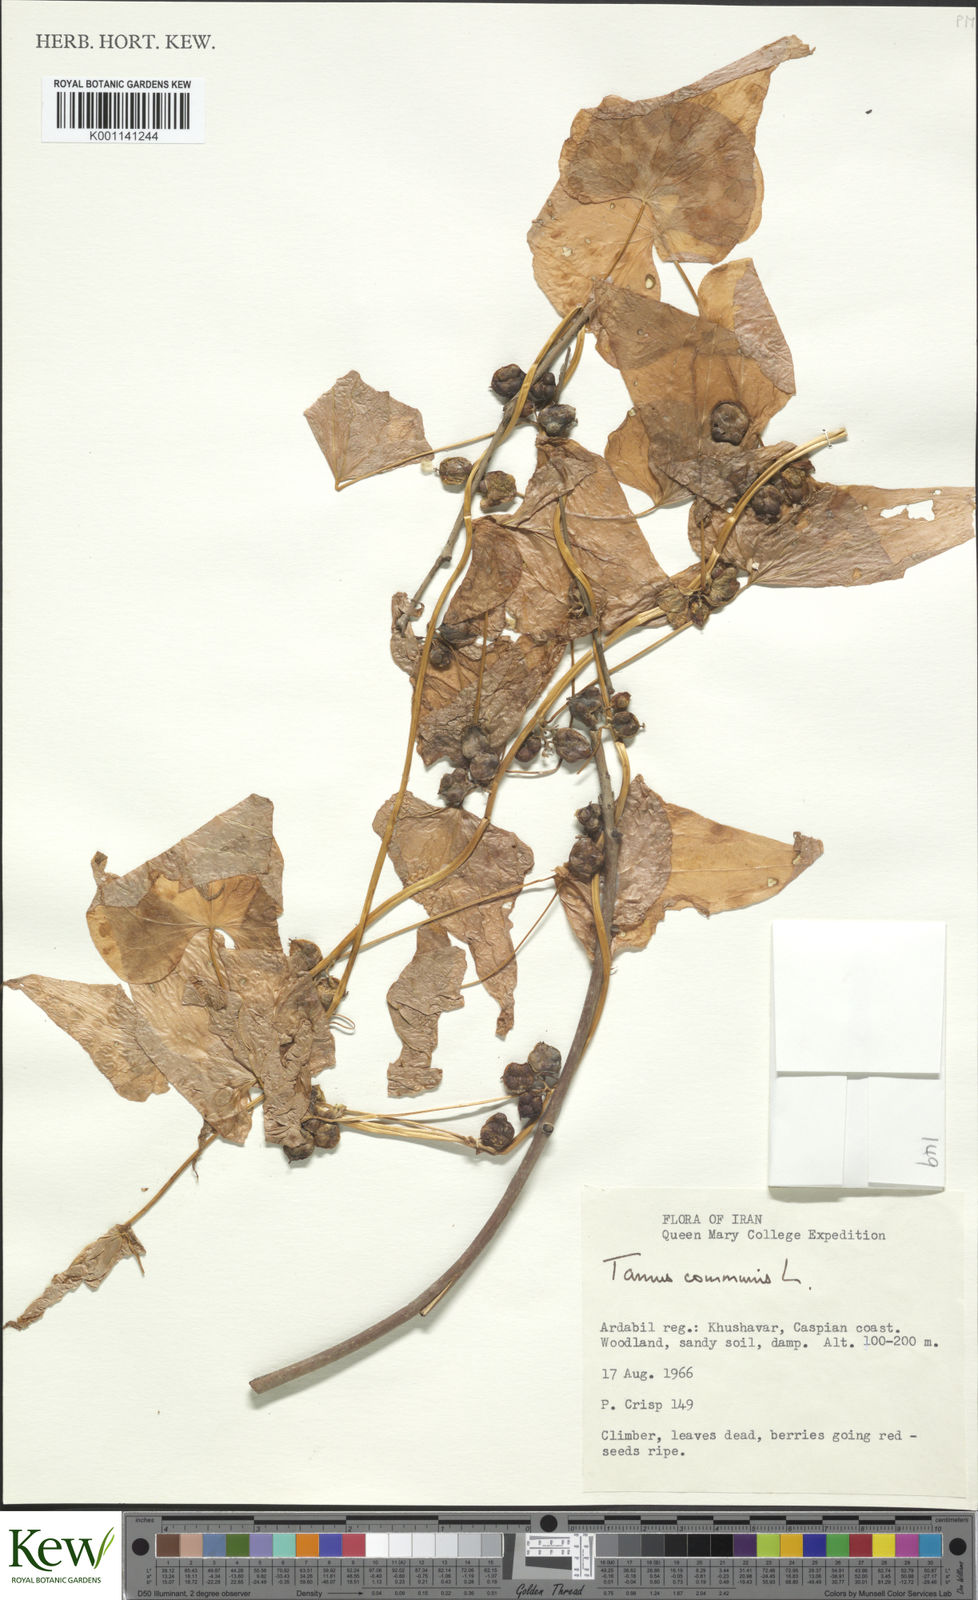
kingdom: Plantae
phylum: Tracheophyta
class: Liliopsida
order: Dioscoreales
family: Dioscoreaceae
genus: Dioscorea
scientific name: Dioscorea communis
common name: Black-bindweed
